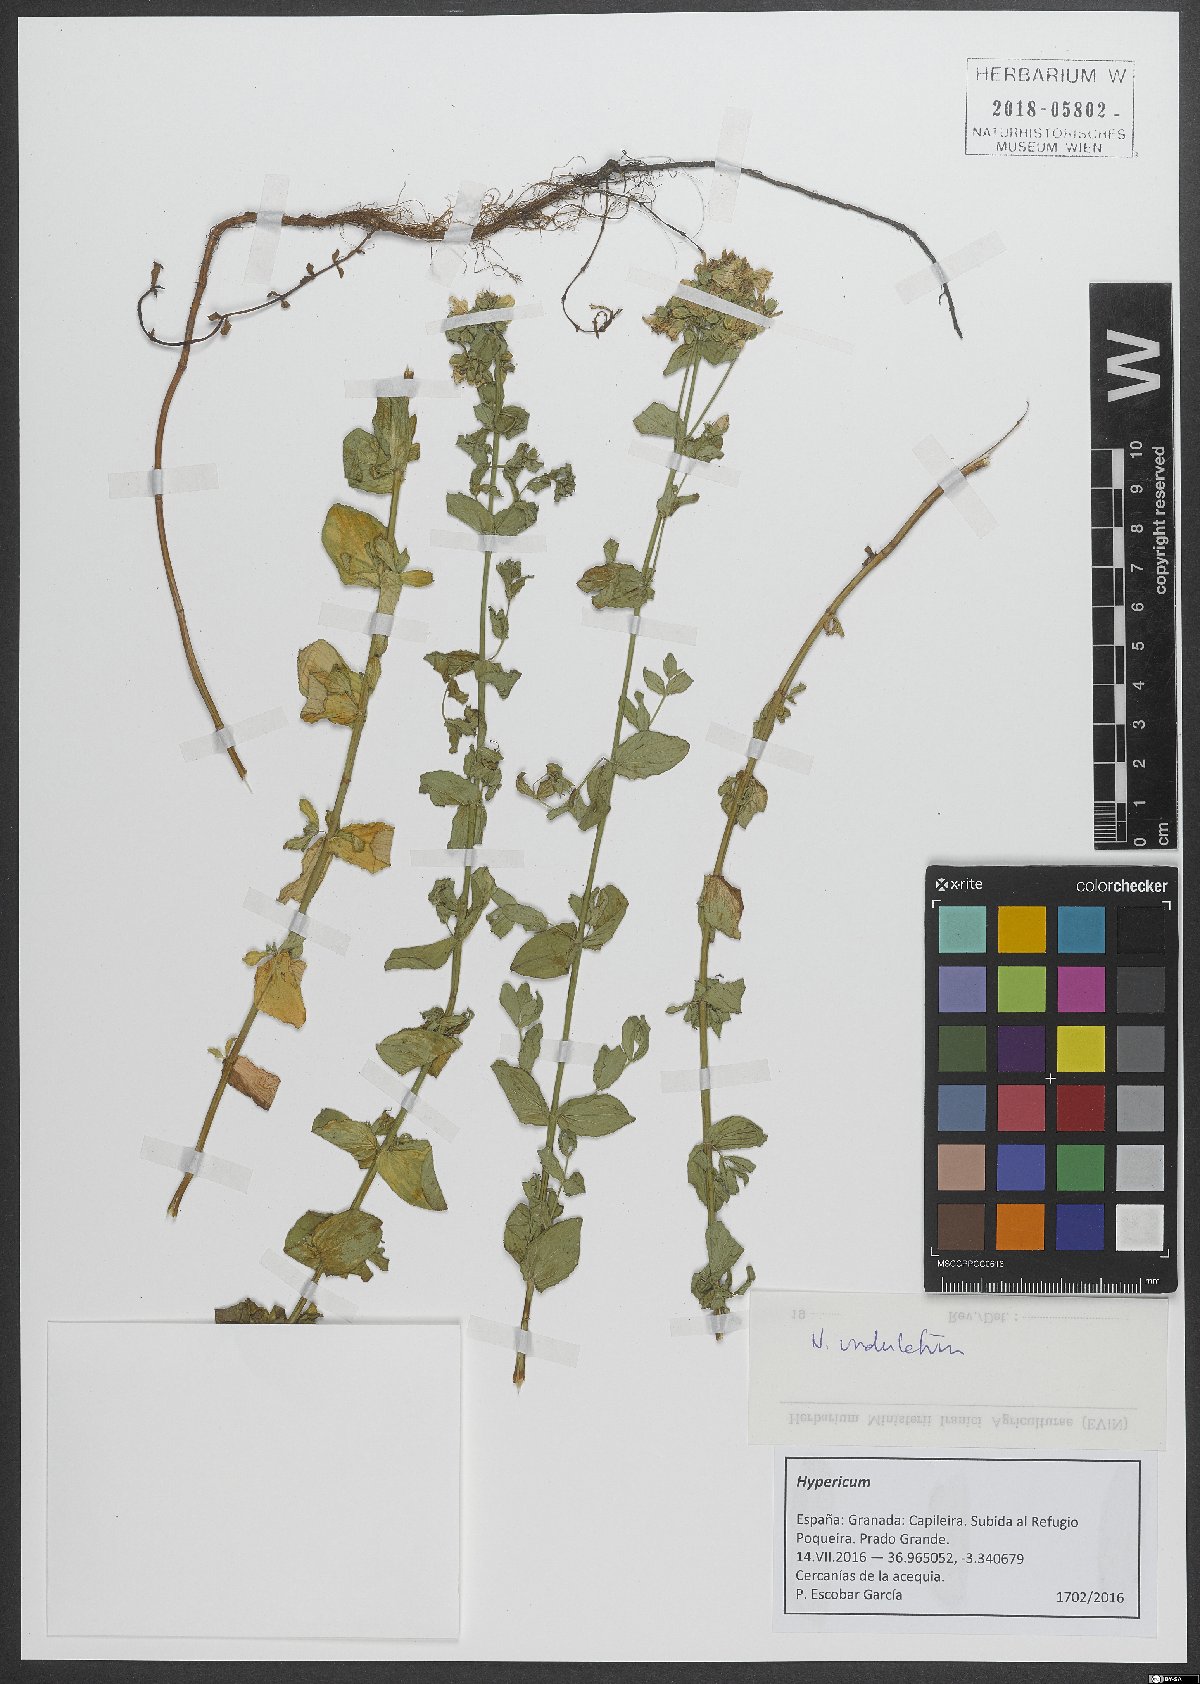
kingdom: Plantae
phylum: Tracheophyta
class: Magnoliopsida
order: Malpighiales
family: Hypericaceae
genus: Hypericum
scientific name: Hypericum undulatum
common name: Wavy st. john's-wort
